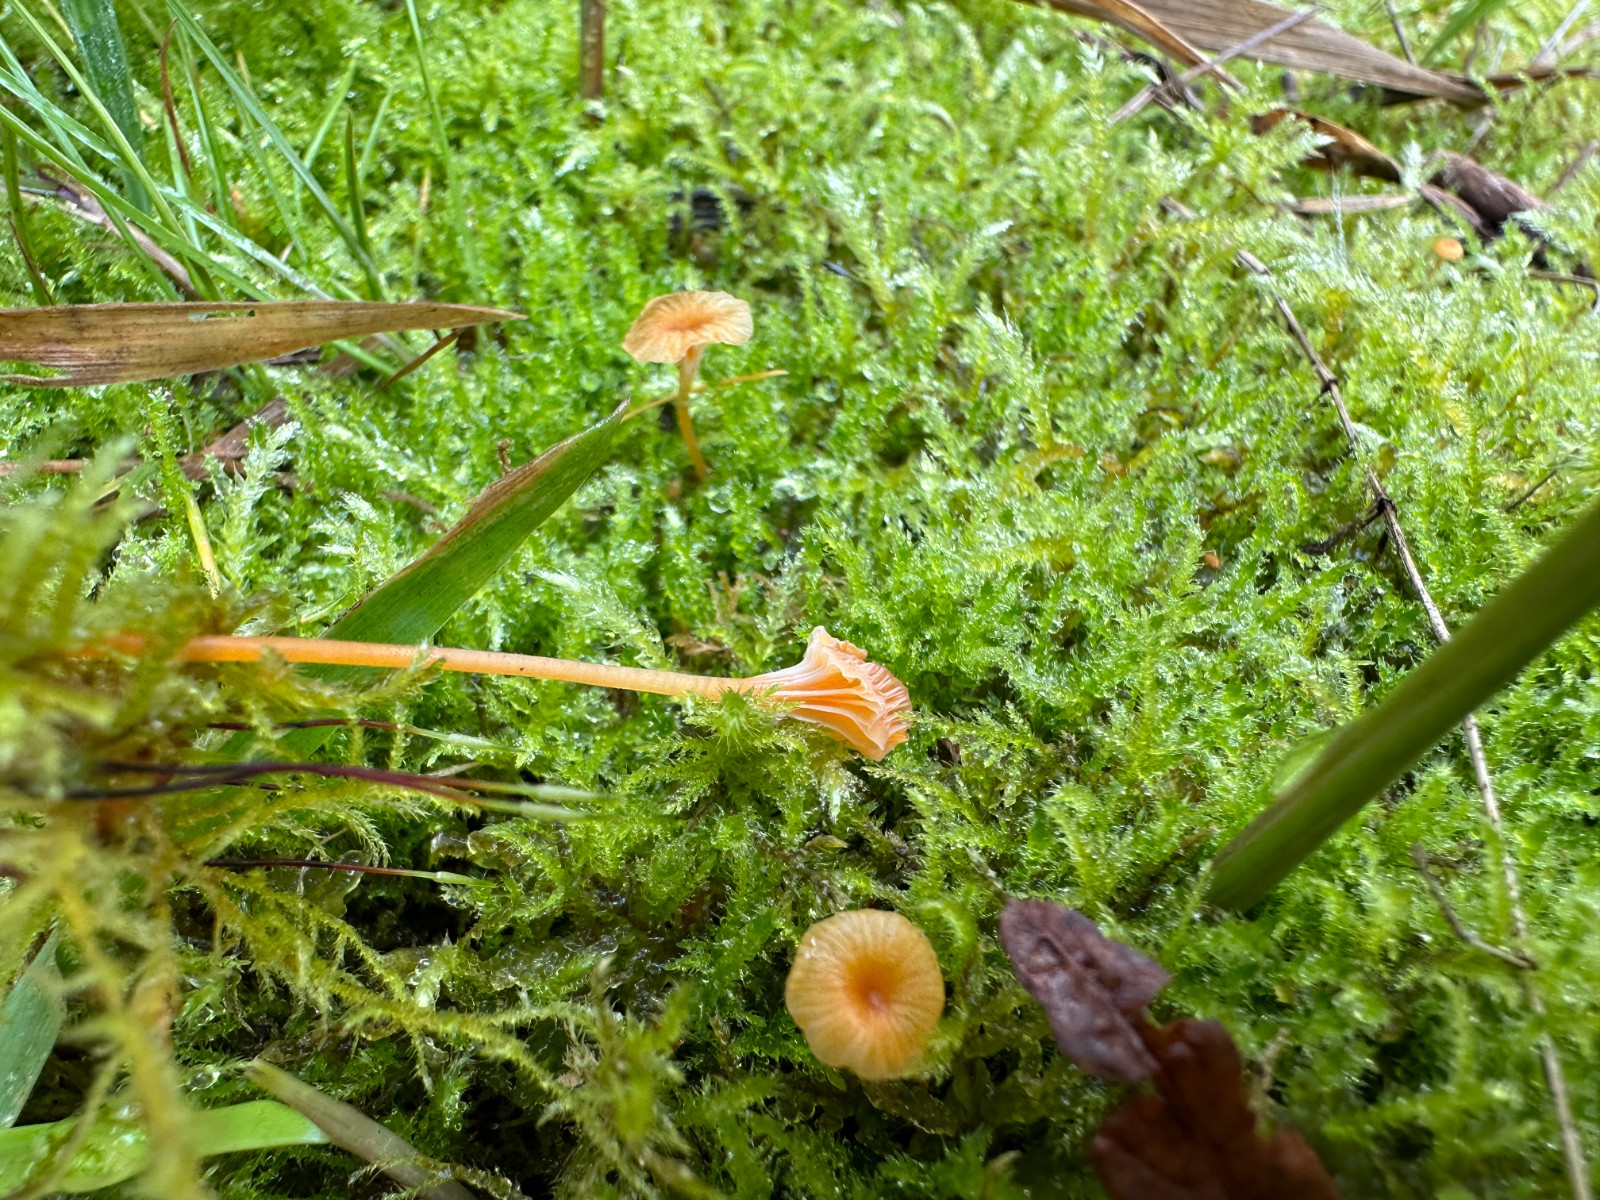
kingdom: Fungi
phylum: Basidiomycota
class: Agaricomycetes
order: Hymenochaetales
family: Rickenellaceae
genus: Rickenella
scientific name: Rickenella fibula
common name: orange mosnavlehat
